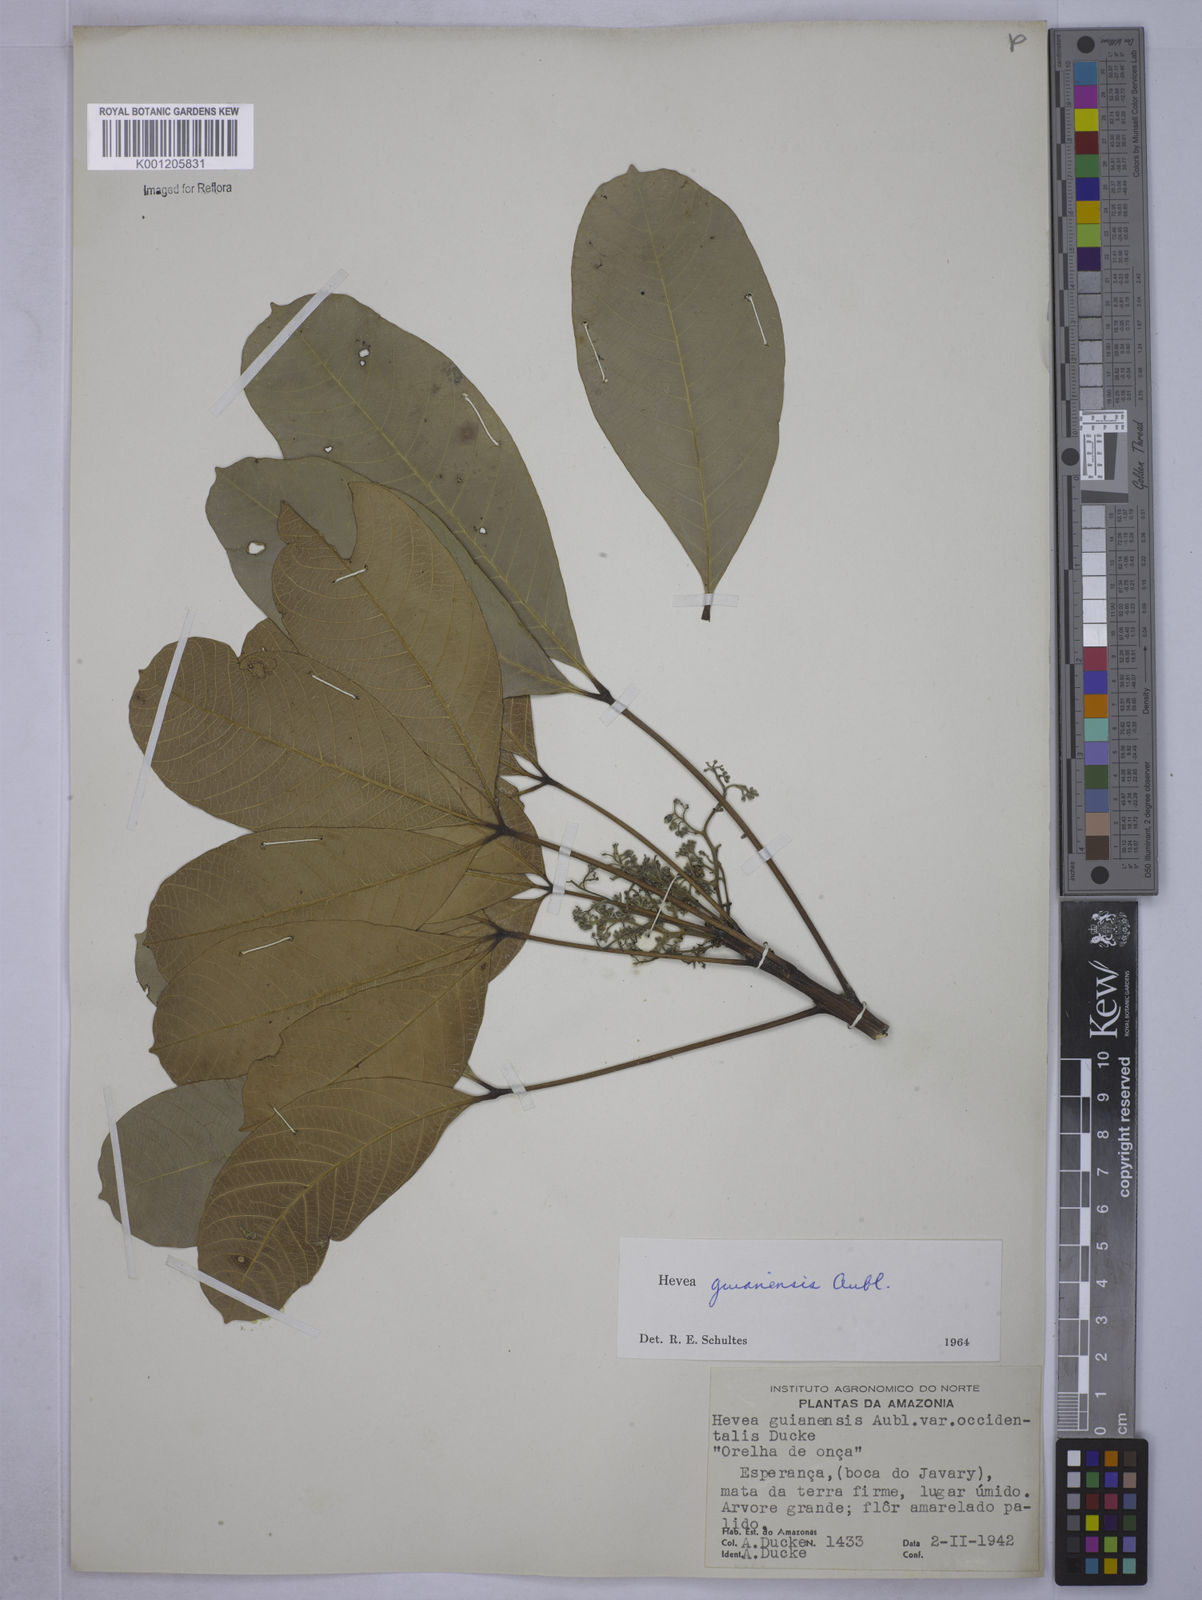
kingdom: Plantae
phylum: Tracheophyta
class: Magnoliopsida
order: Malpighiales
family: Euphorbiaceae
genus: Hevea
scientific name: Hevea guianensis
